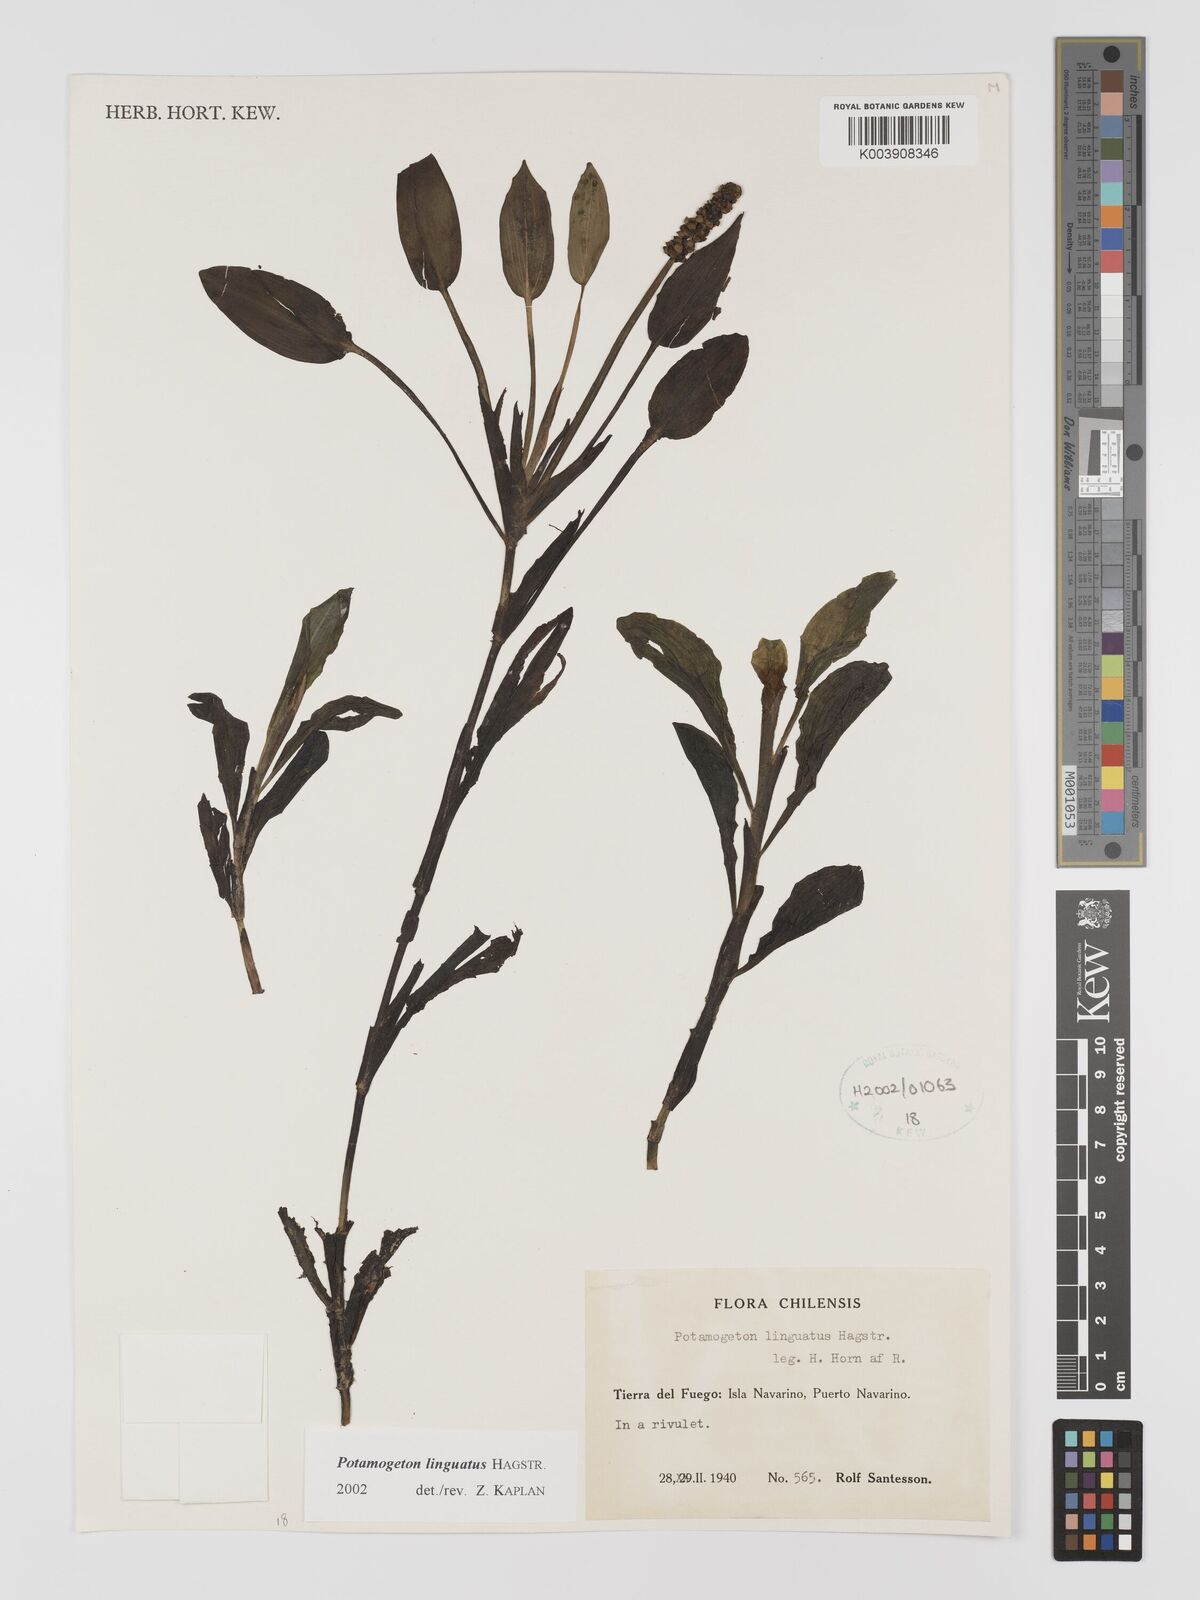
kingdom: Plantae
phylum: Tracheophyta
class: Liliopsida
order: Alismatales
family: Potamogetonaceae
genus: Potamogeton
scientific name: Potamogeton linguatus
